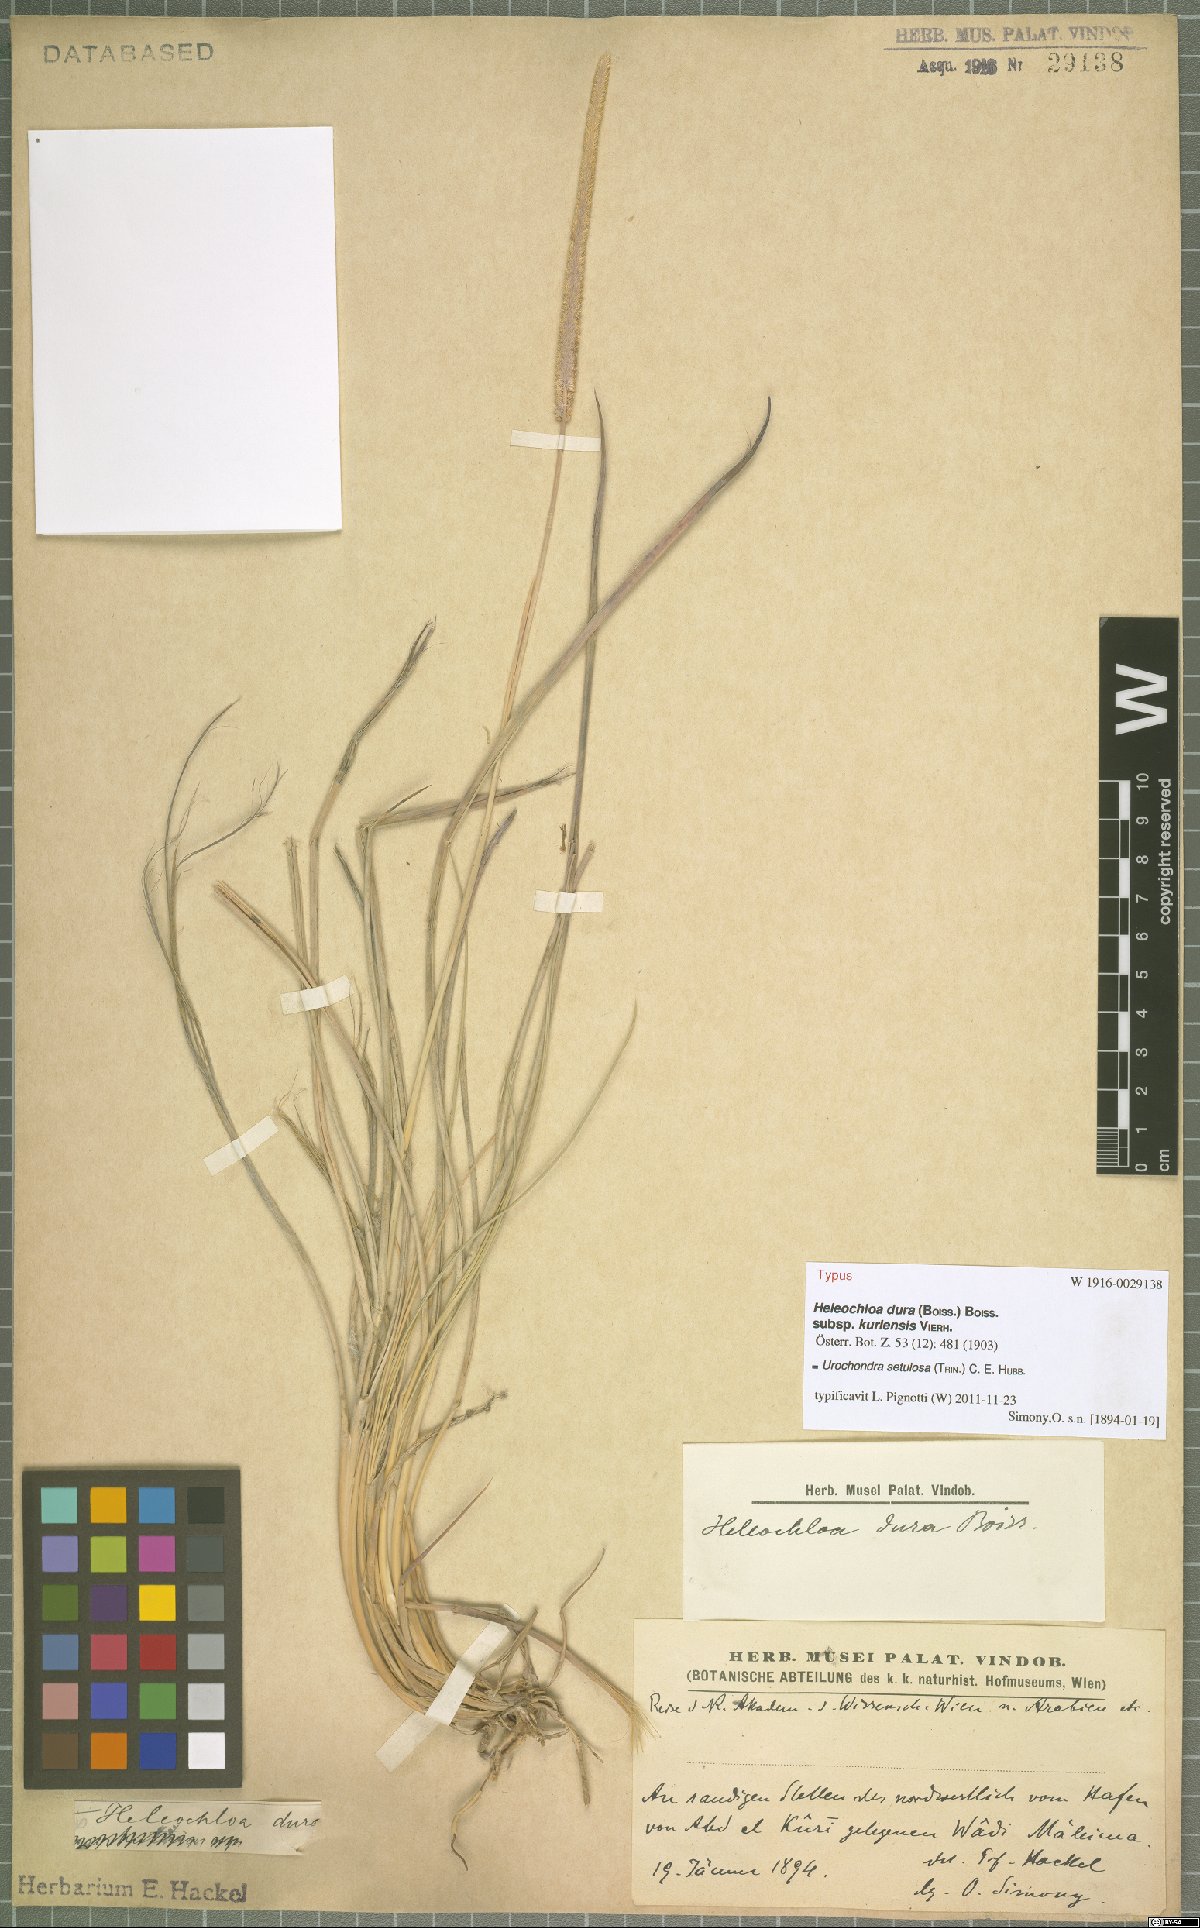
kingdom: Plantae
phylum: Tracheophyta
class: Liliopsida
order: Poales
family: Poaceae
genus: Urochondra
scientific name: Urochondra setulosa
